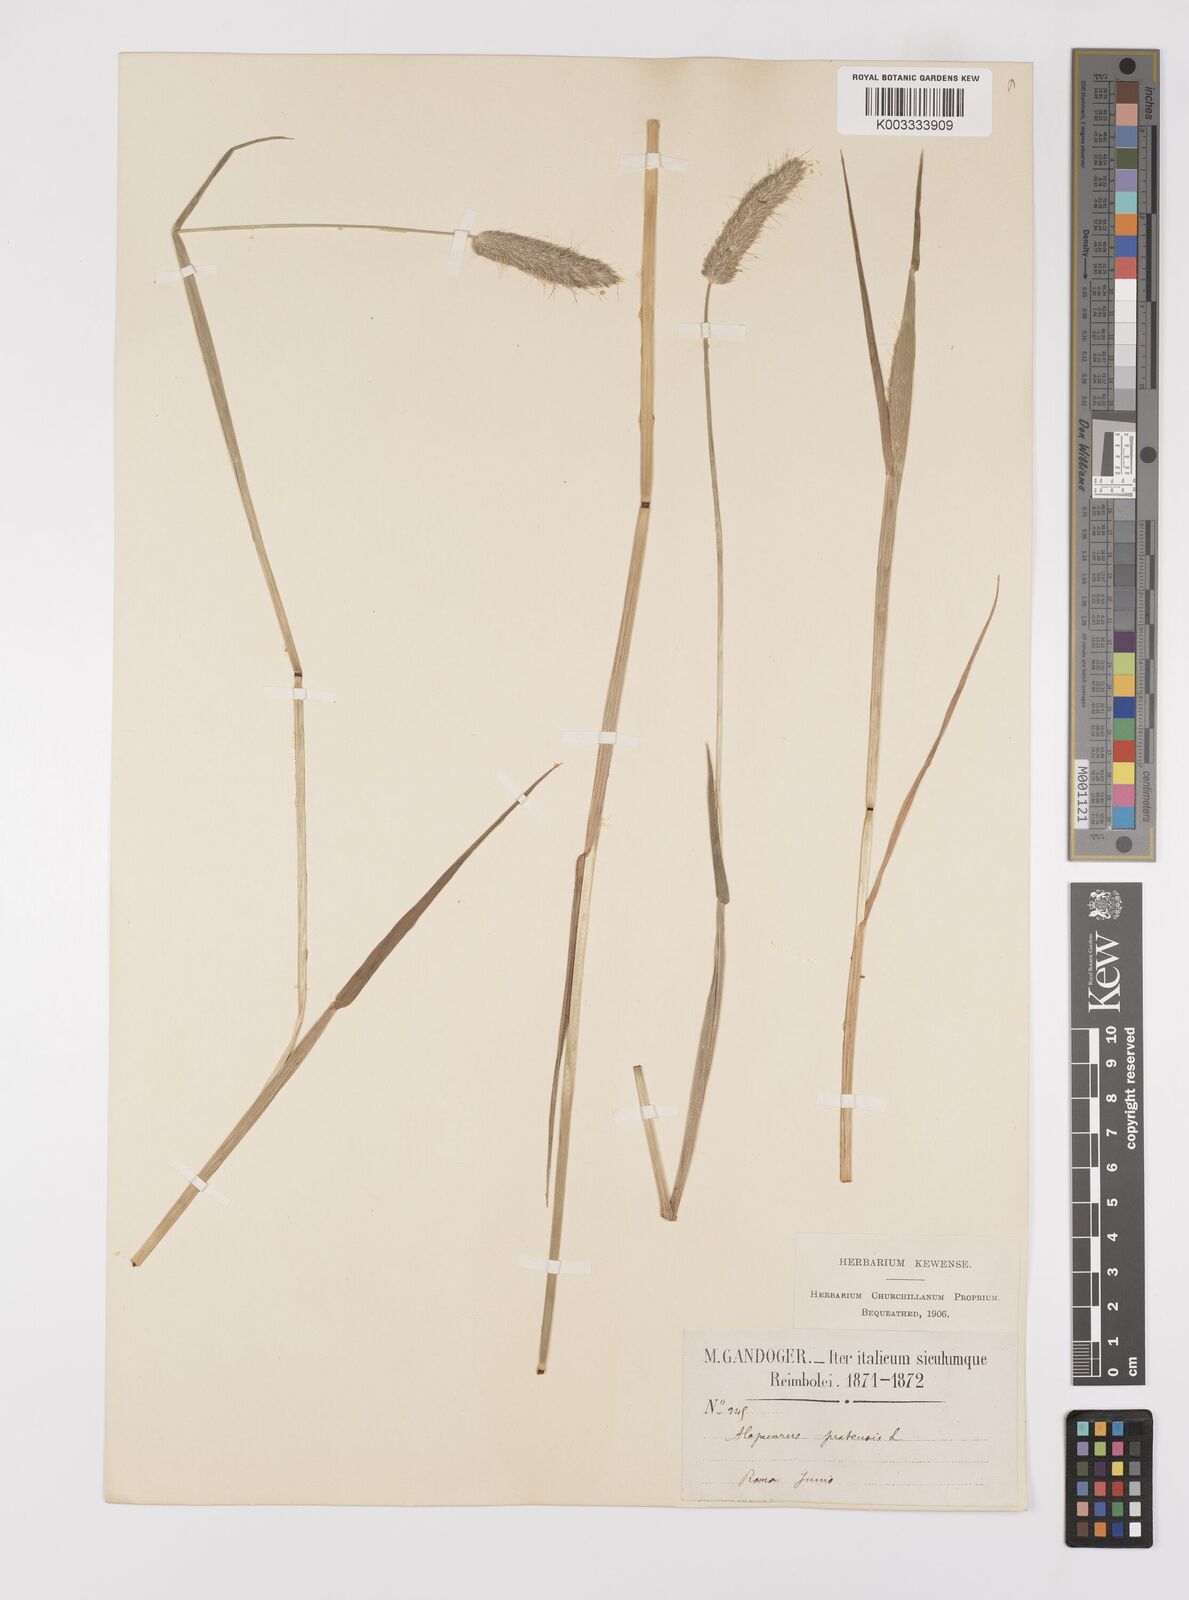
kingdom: Plantae
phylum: Tracheophyta
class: Liliopsida
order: Poales
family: Poaceae
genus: Alopecurus
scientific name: Alopecurus pratensis
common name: Meadow foxtail
